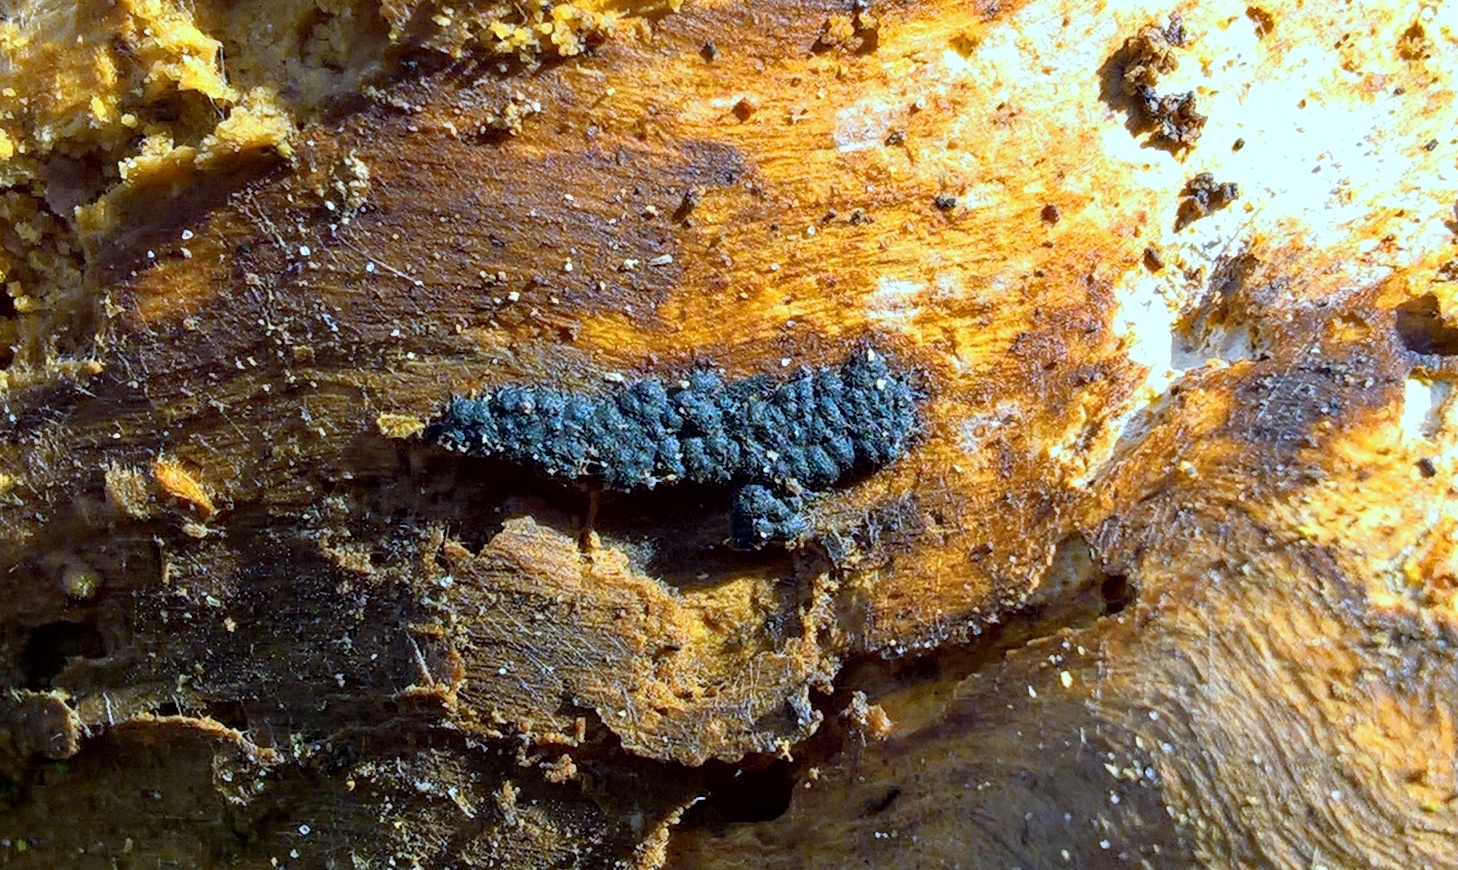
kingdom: Fungi
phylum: Ascomycota
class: Sordariomycetes
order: Xylariales
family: Xylariaceae
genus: Nemania
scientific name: Nemania
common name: kuldyne
